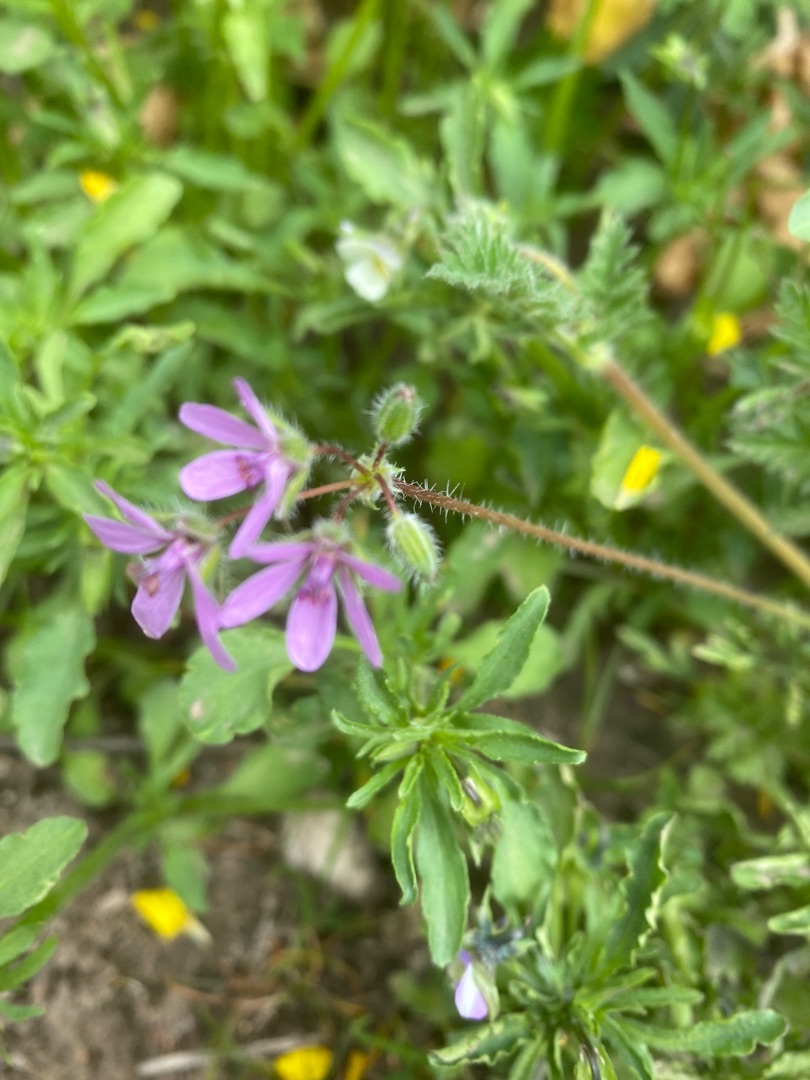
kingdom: Plantae
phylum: Tracheophyta
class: Magnoliopsida
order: Geraniales
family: Geraniaceae
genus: Erodium
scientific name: Erodium cicutarium
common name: Hejrenæb
